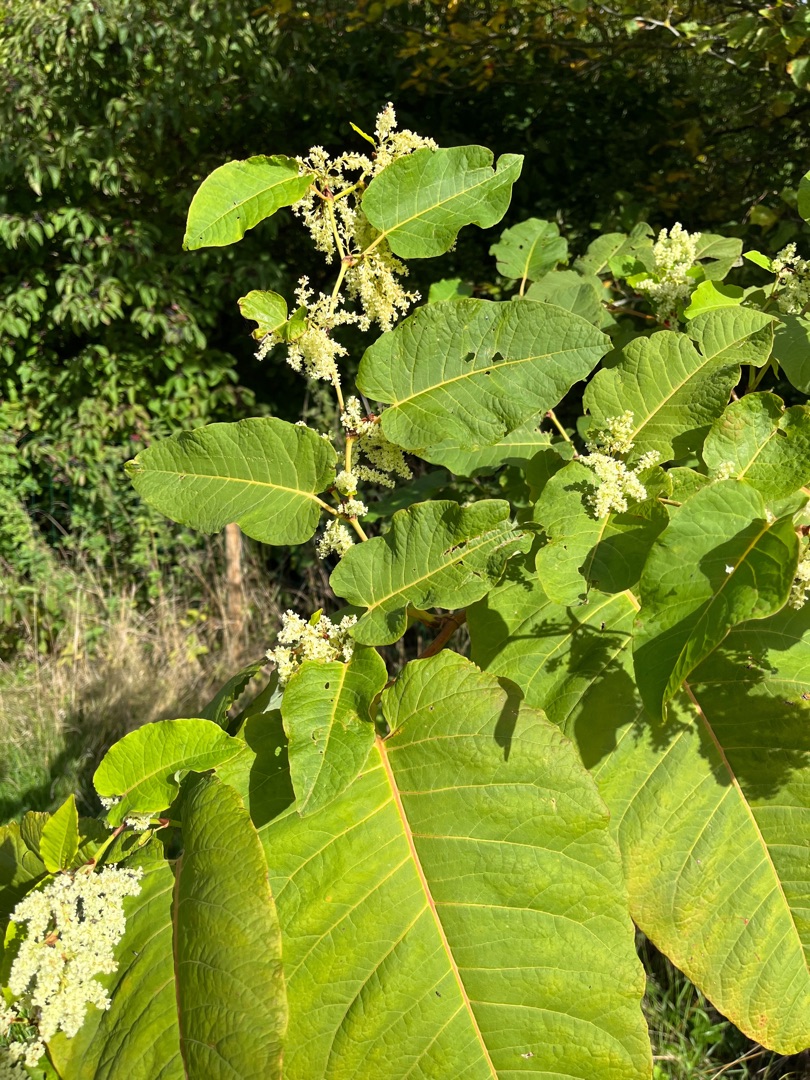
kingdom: Plantae
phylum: Tracheophyta
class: Magnoliopsida
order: Caryophyllales
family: Polygonaceae
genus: Reynoutria
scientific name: Reynoutria sachalinensis
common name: Kæmpe-pileurt
